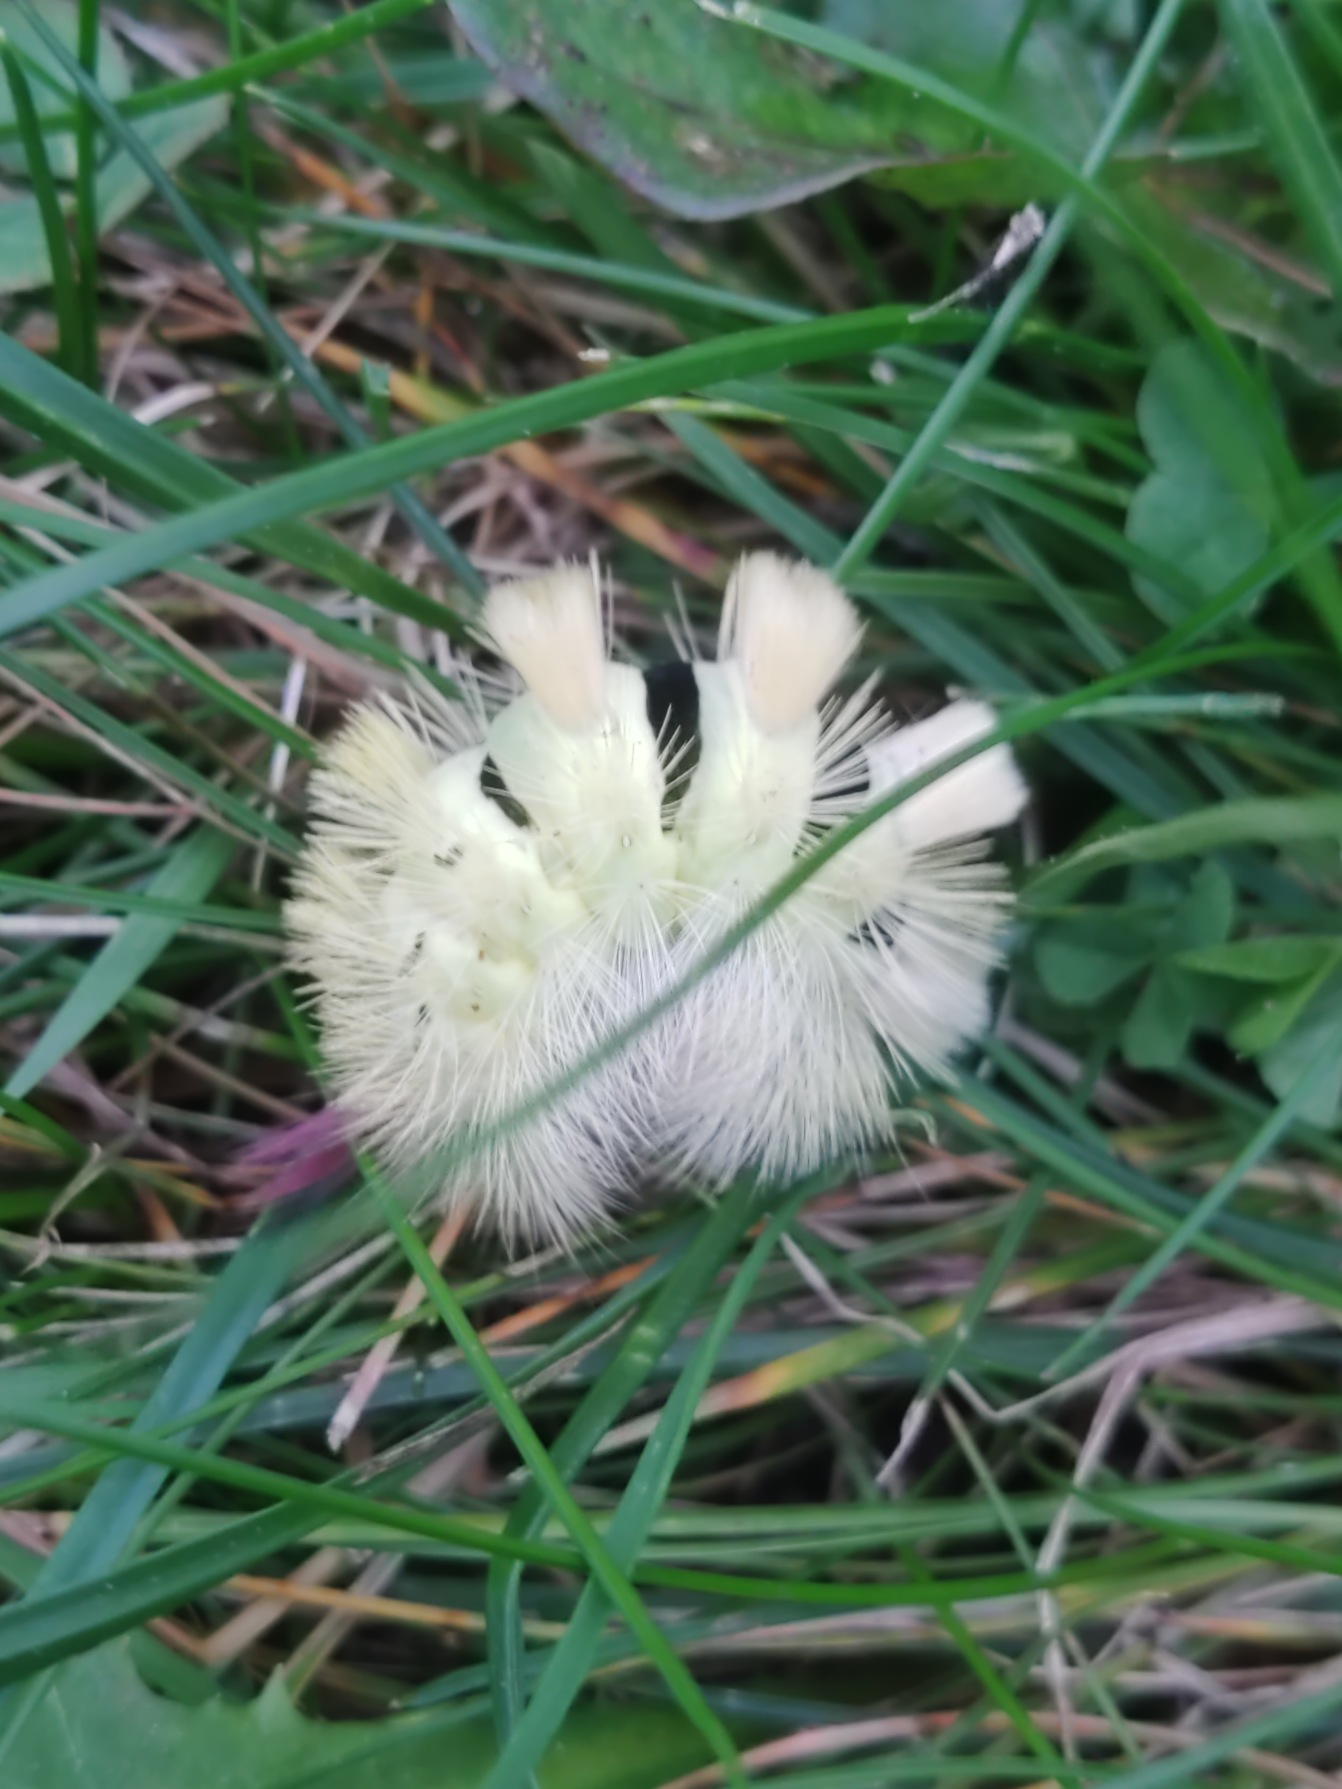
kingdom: Animalia
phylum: Arthropoda
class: Insecta
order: Lepidoptera
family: Erebidae
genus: Calliteara
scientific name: Calliteara pudibunda
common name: Bøgenonne
